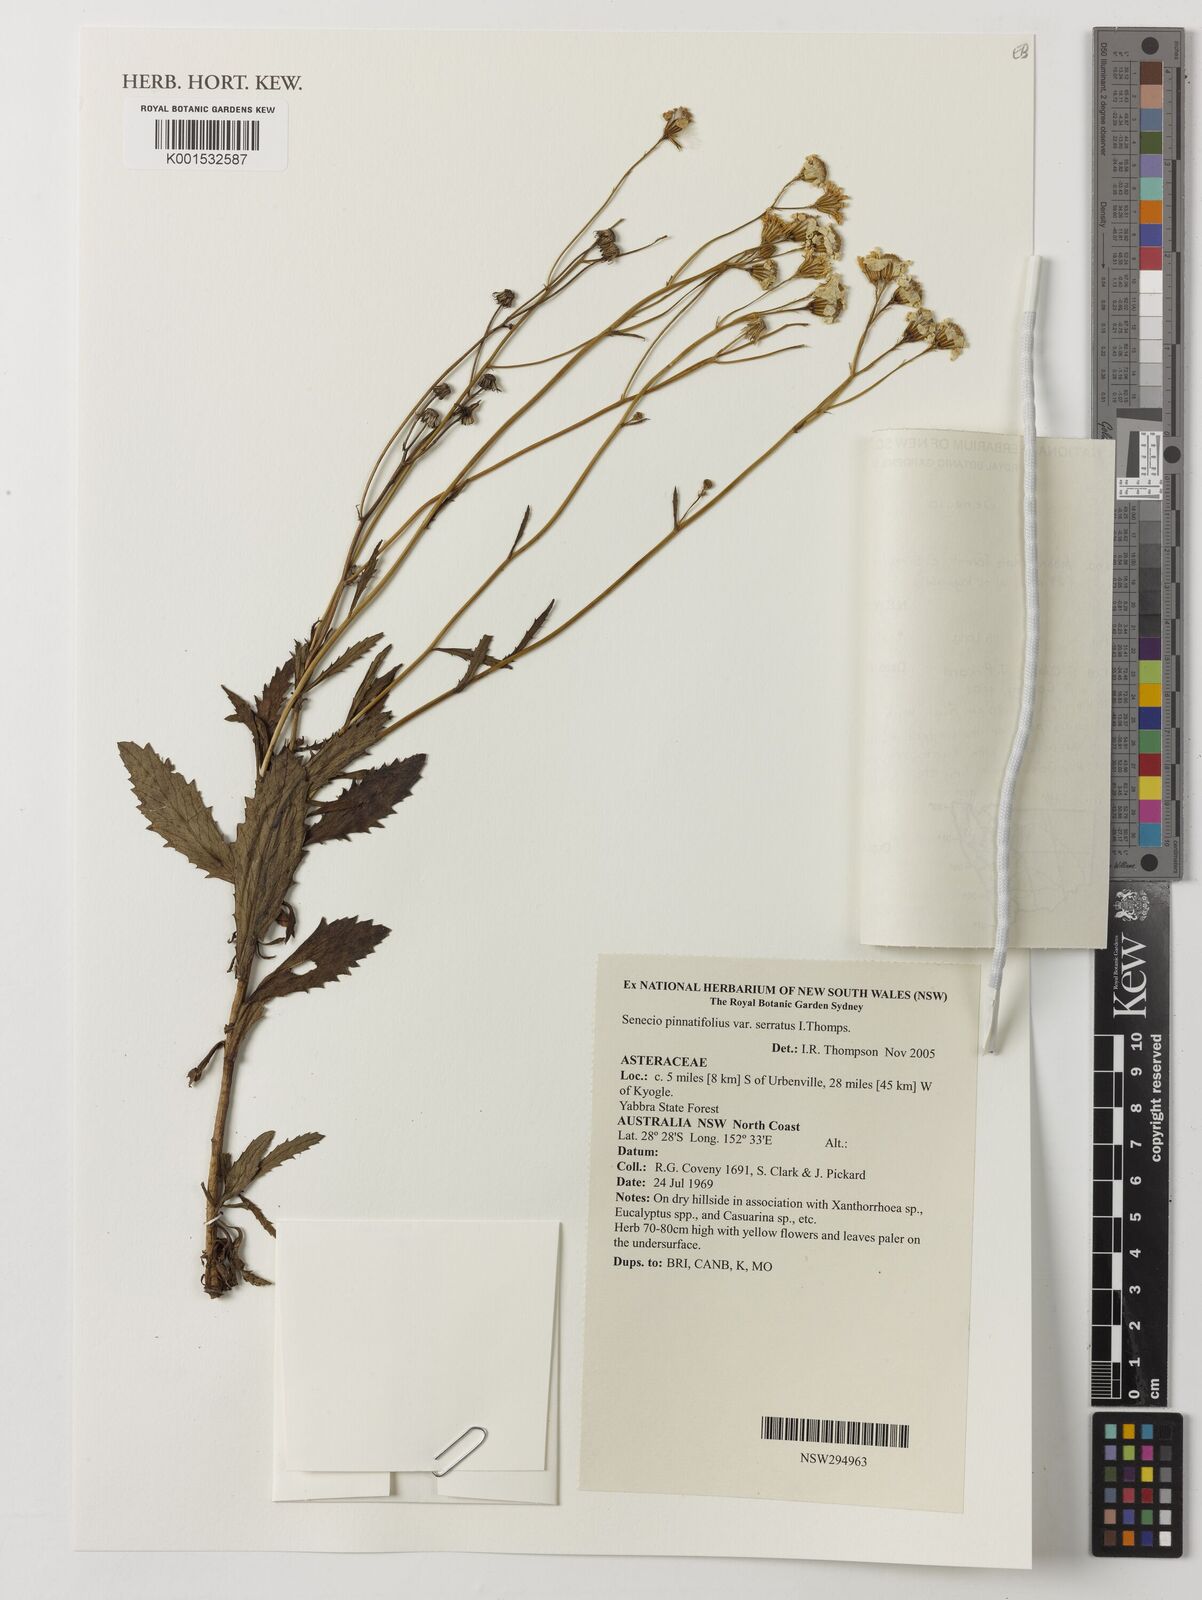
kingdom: Plantae
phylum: Tracheophyta
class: Magnoliopsida
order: Asterales
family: Asteraceae
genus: Senecio
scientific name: Senecio sphaerocephalus
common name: Mountain-marsh butterweed
